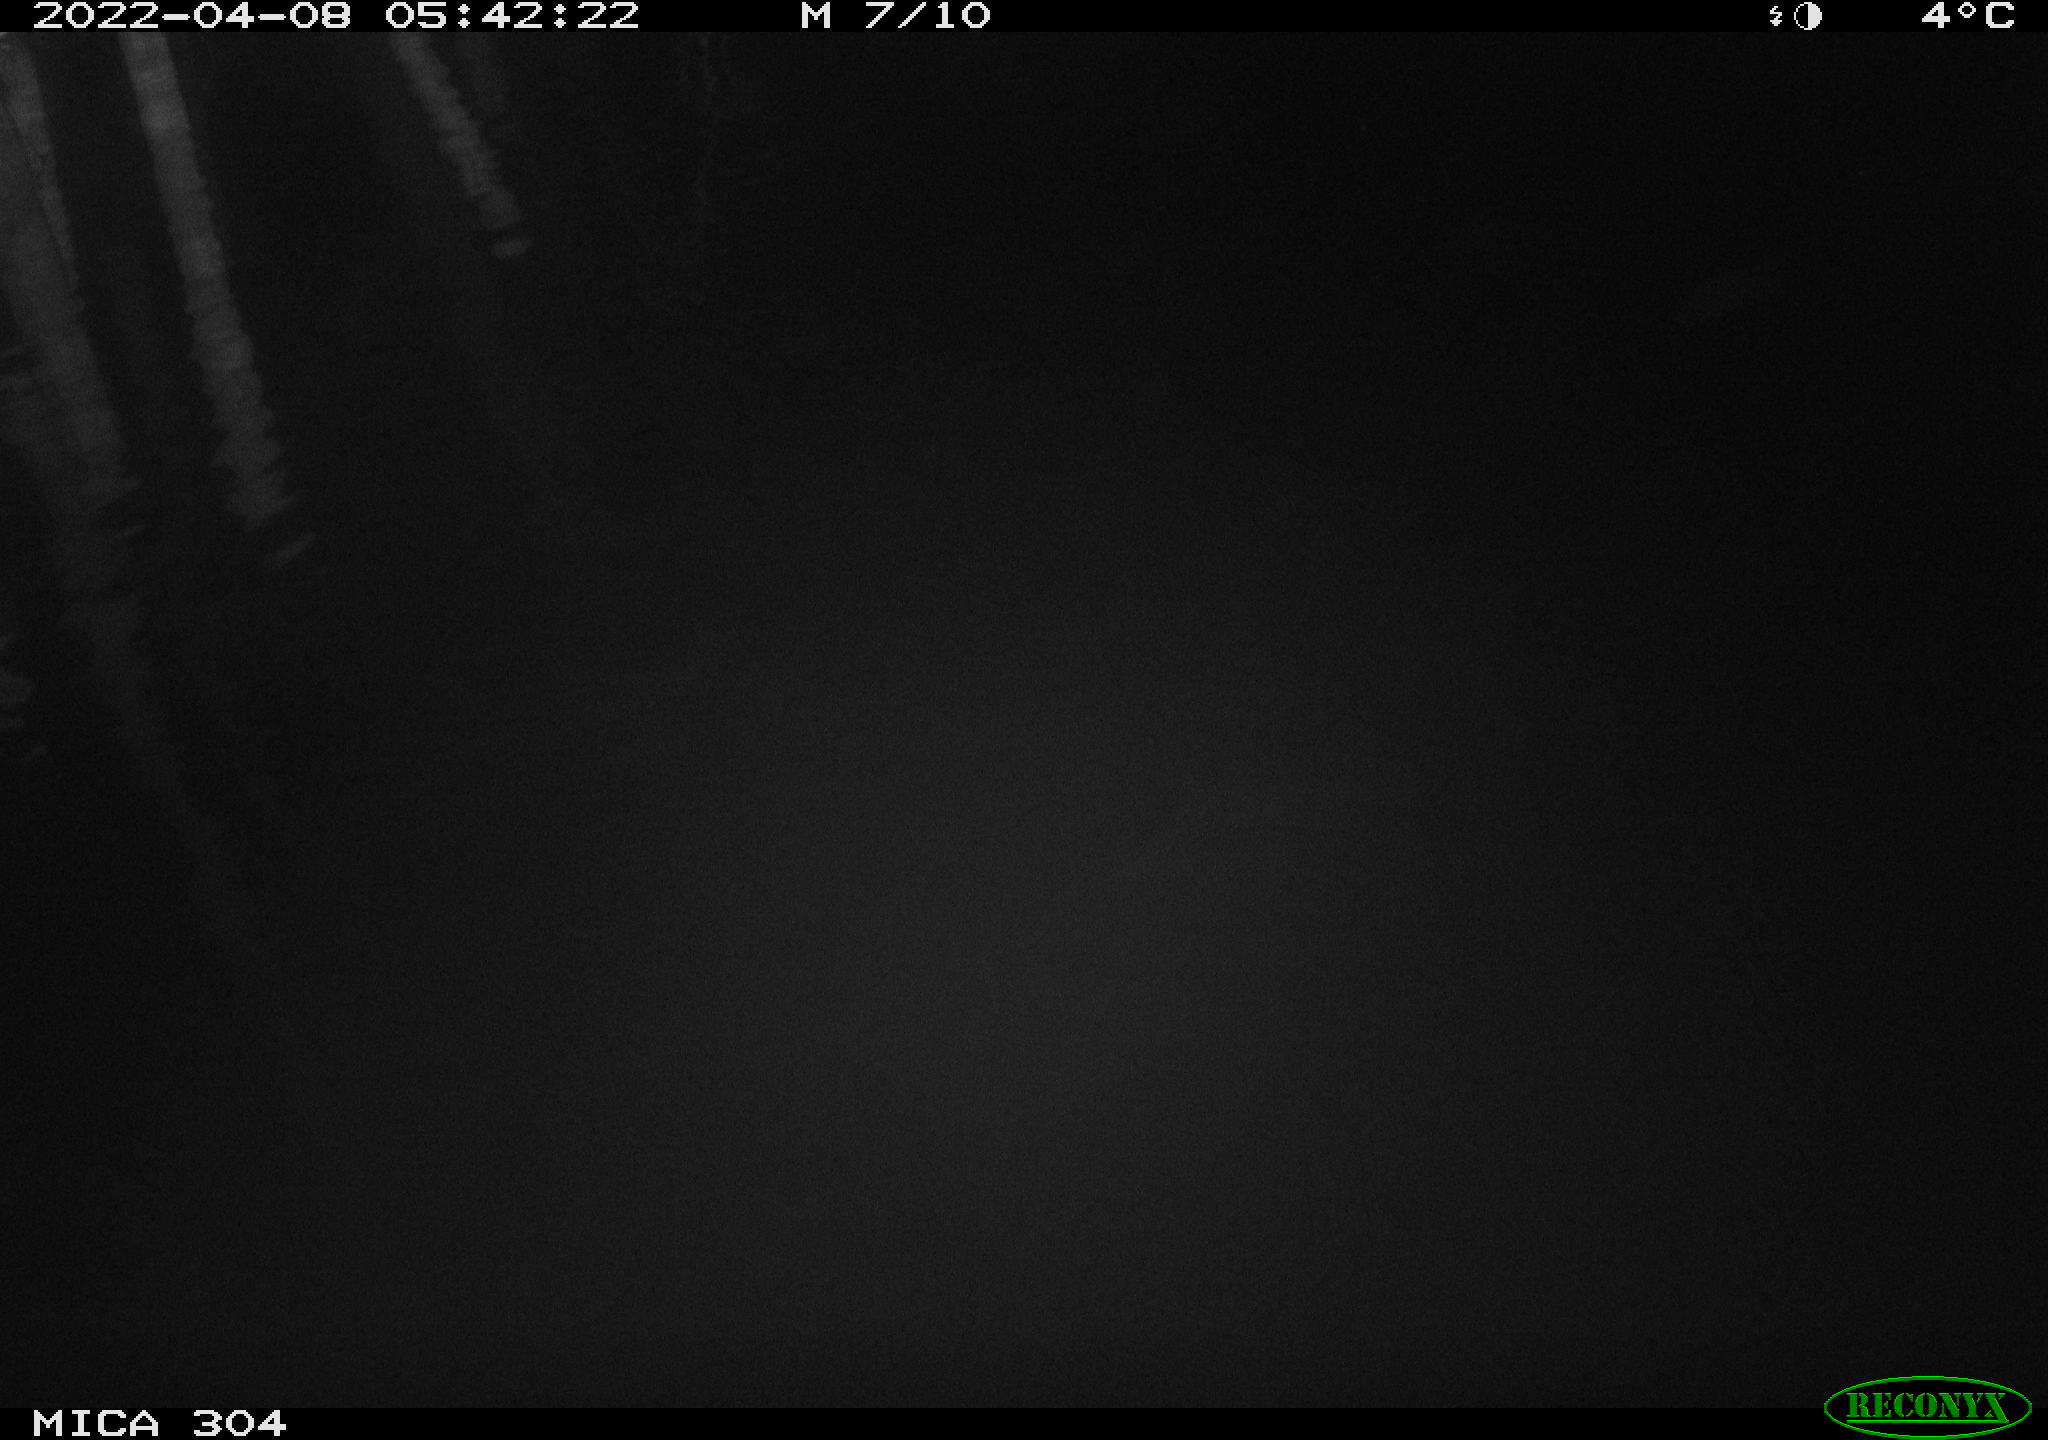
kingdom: Animalia
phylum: Chordata
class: Aves
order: Anseriformes
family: Anatidae
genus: Anas
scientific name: Anas platyrhynchos
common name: Mallard
